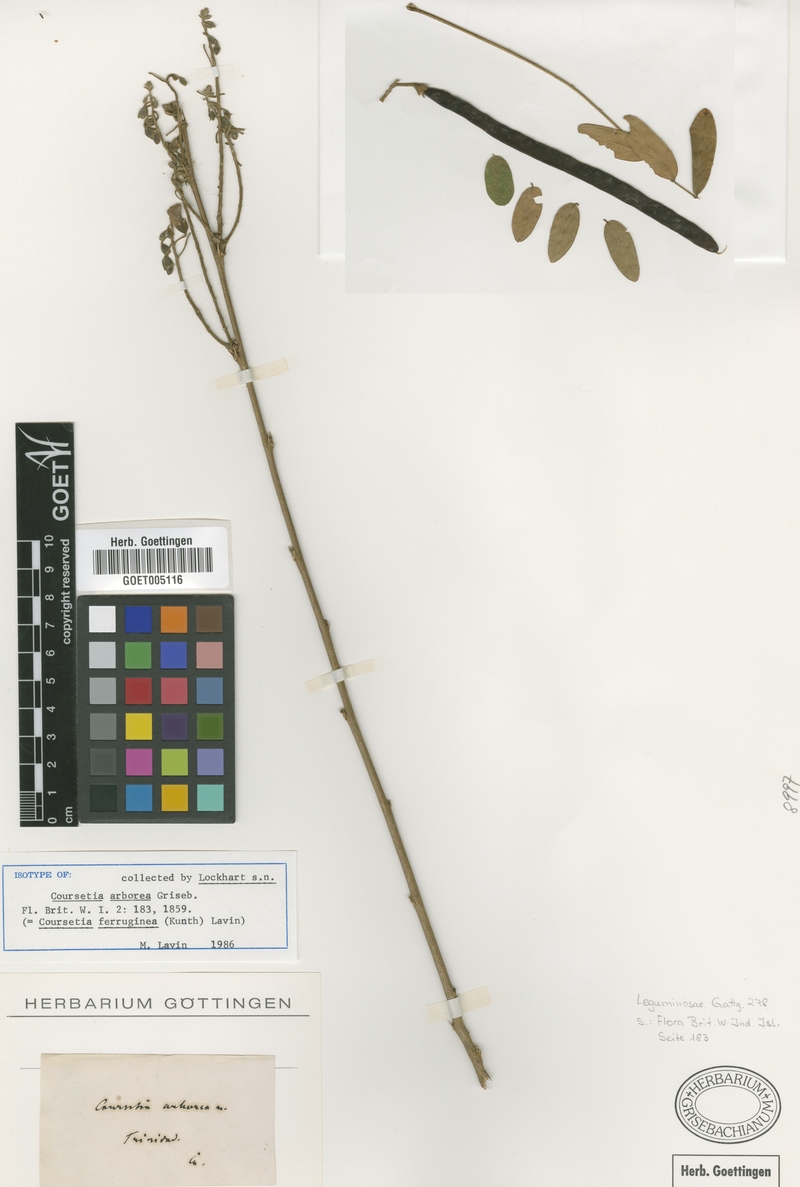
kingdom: Plantae
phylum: Tracheophyta
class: Magnoliopsida
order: Fabales
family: Fabaceae
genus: Coursetia
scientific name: Coursetia ferruginea
